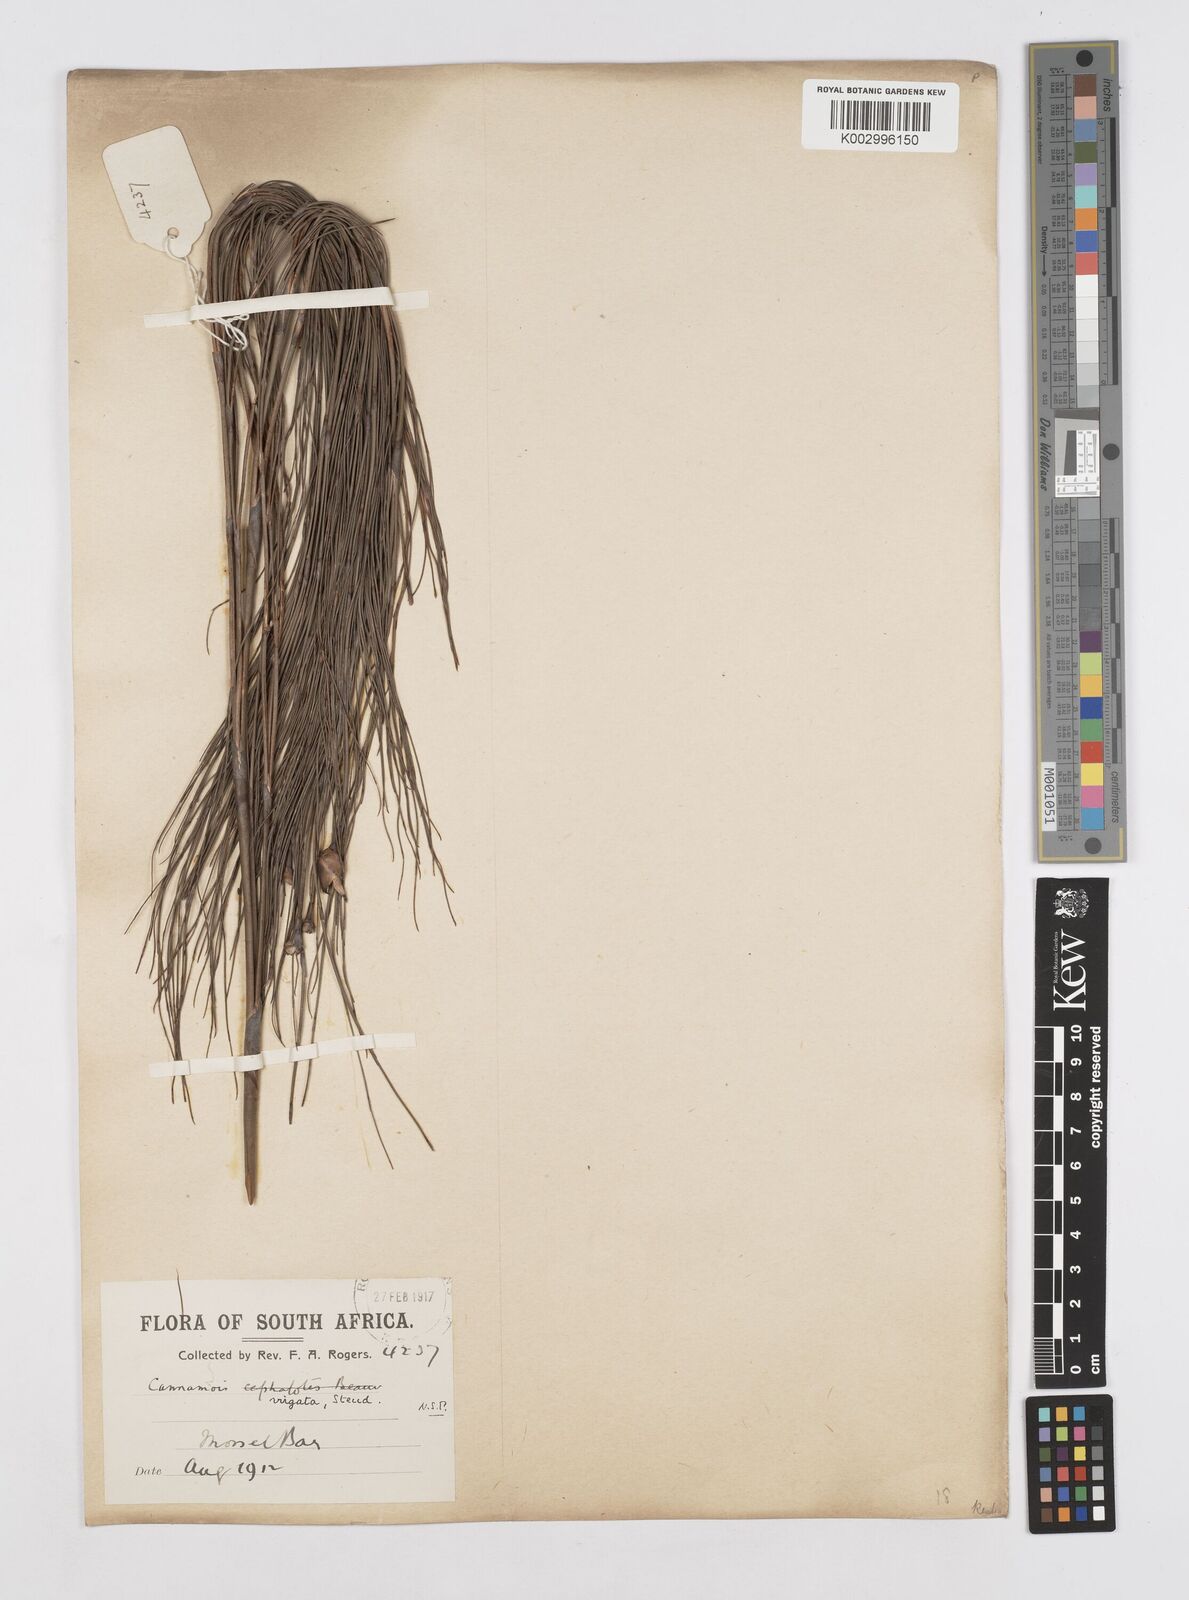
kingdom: Plantae
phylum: Tracheophyta
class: Liliopsida
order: Poales
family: Restionaceae
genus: Cannomois
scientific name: Cannomois virgata
